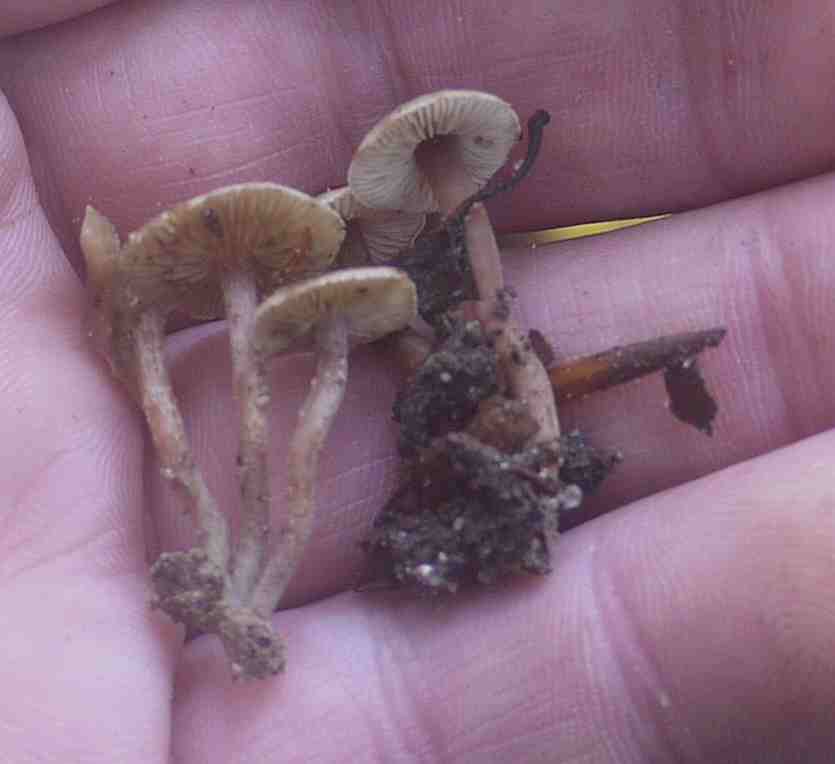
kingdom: Fungi
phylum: Basidiomycota
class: Agaricomycetes
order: Agaricales
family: Inocybaceae
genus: Inocybe
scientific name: Inocybe petiginosa
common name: liden trævlhat
